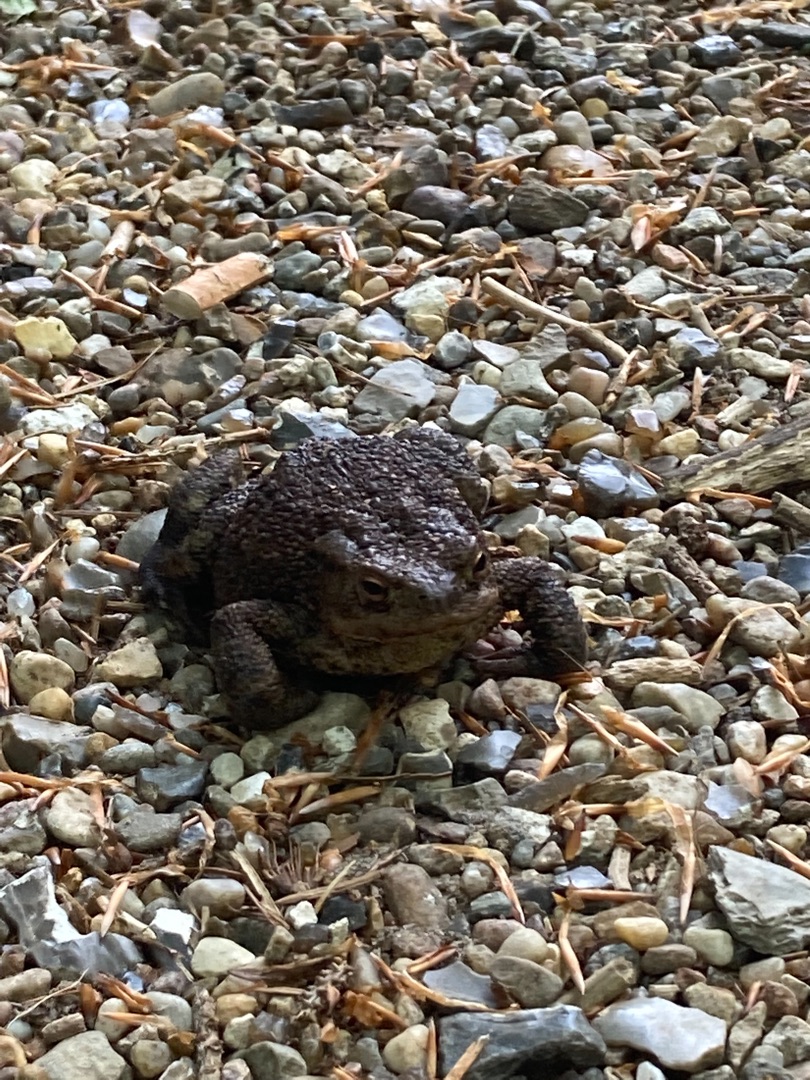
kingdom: Animalia
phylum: Chordata
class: Amphibia
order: Anura
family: Bufonidae
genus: Bufo
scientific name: Bufo bufo
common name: Skrubtudse
